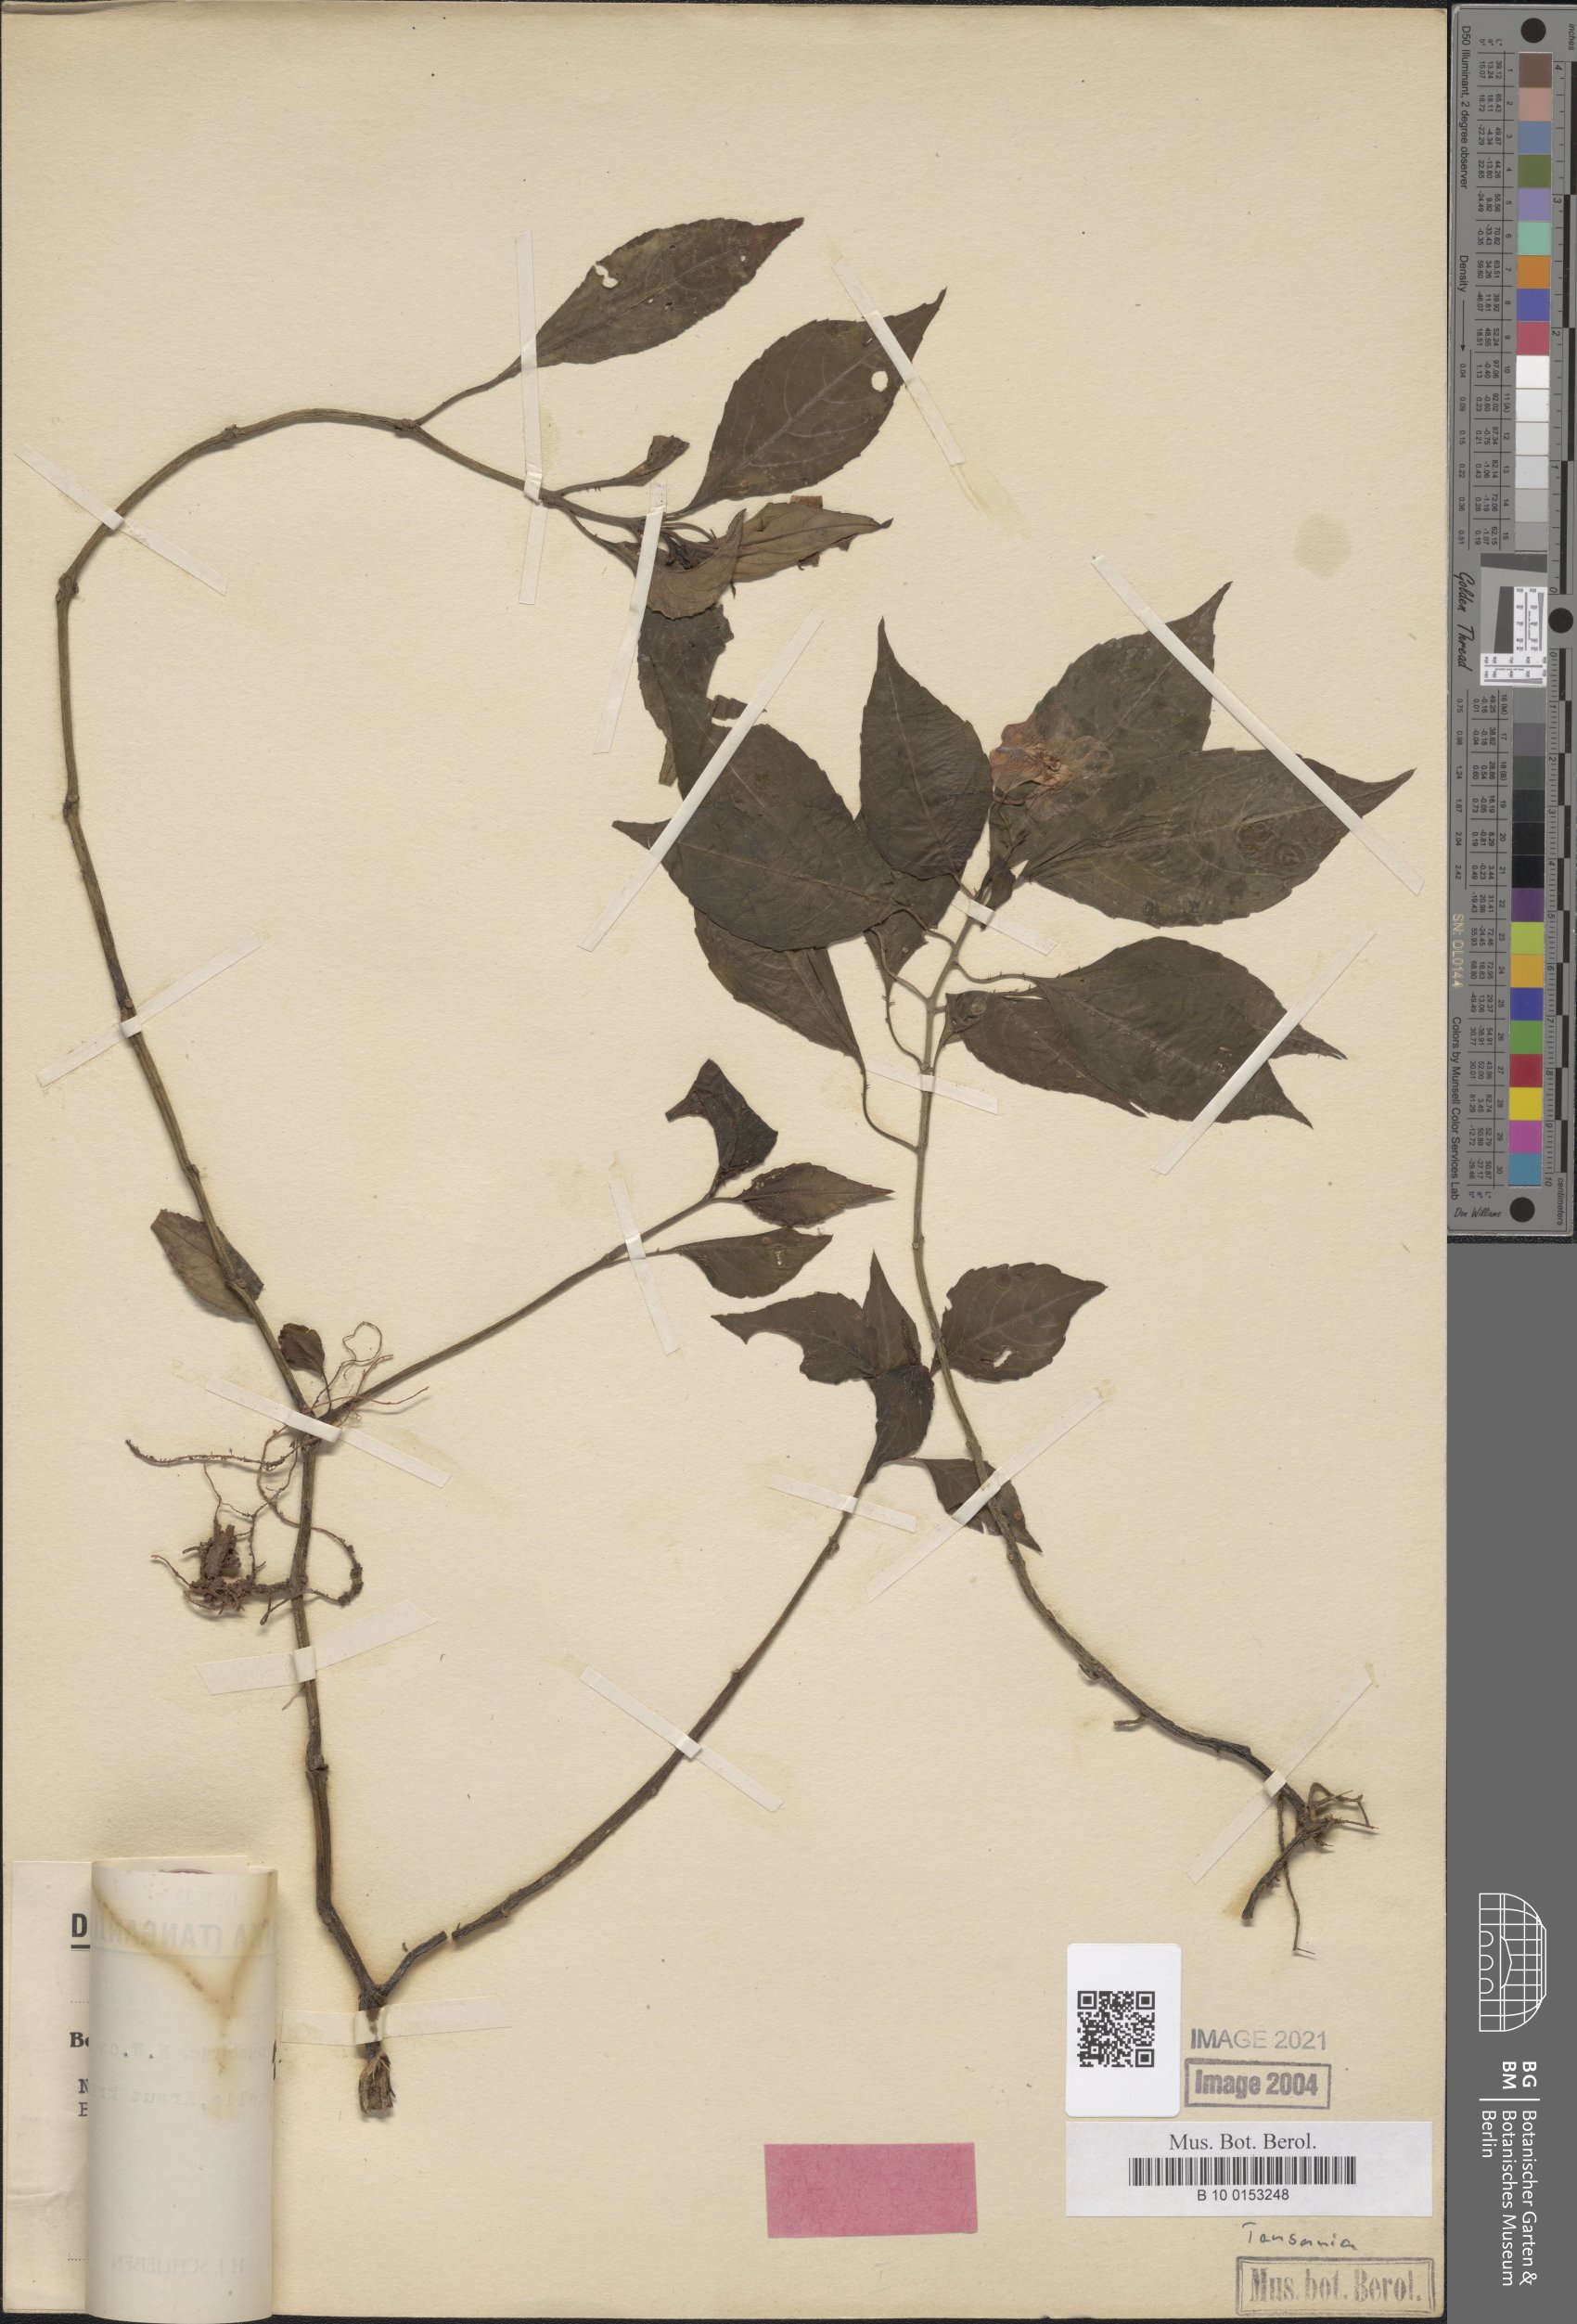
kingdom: Plantae
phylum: Tracheophyta
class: Magnoliopsida
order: Ericales
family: Balsaminaceae
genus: Impatiens
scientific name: Impatiens barbulata
